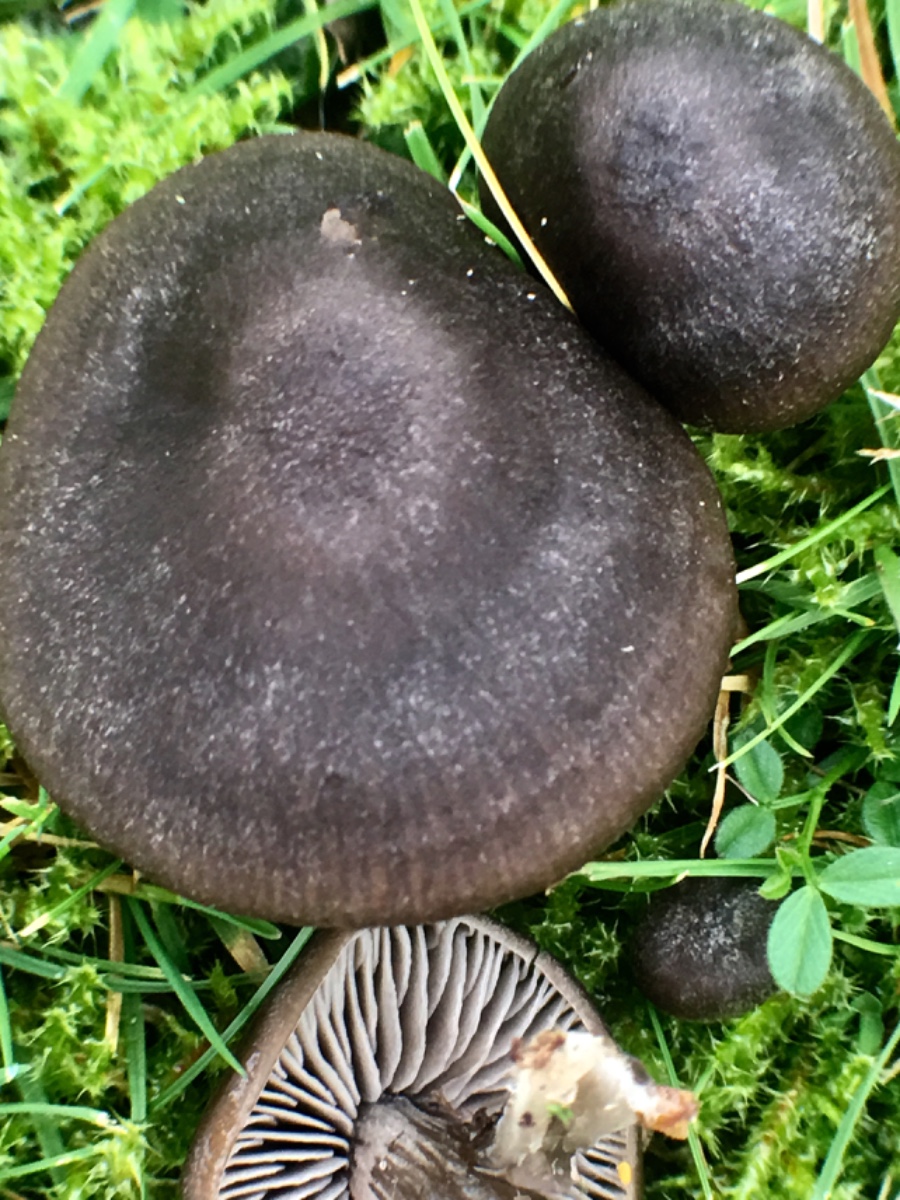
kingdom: Fungi
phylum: Basidiomycota
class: Agaricomycetes
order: Agaricales
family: Entolomataceae
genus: Entoloma
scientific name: Entoloma
